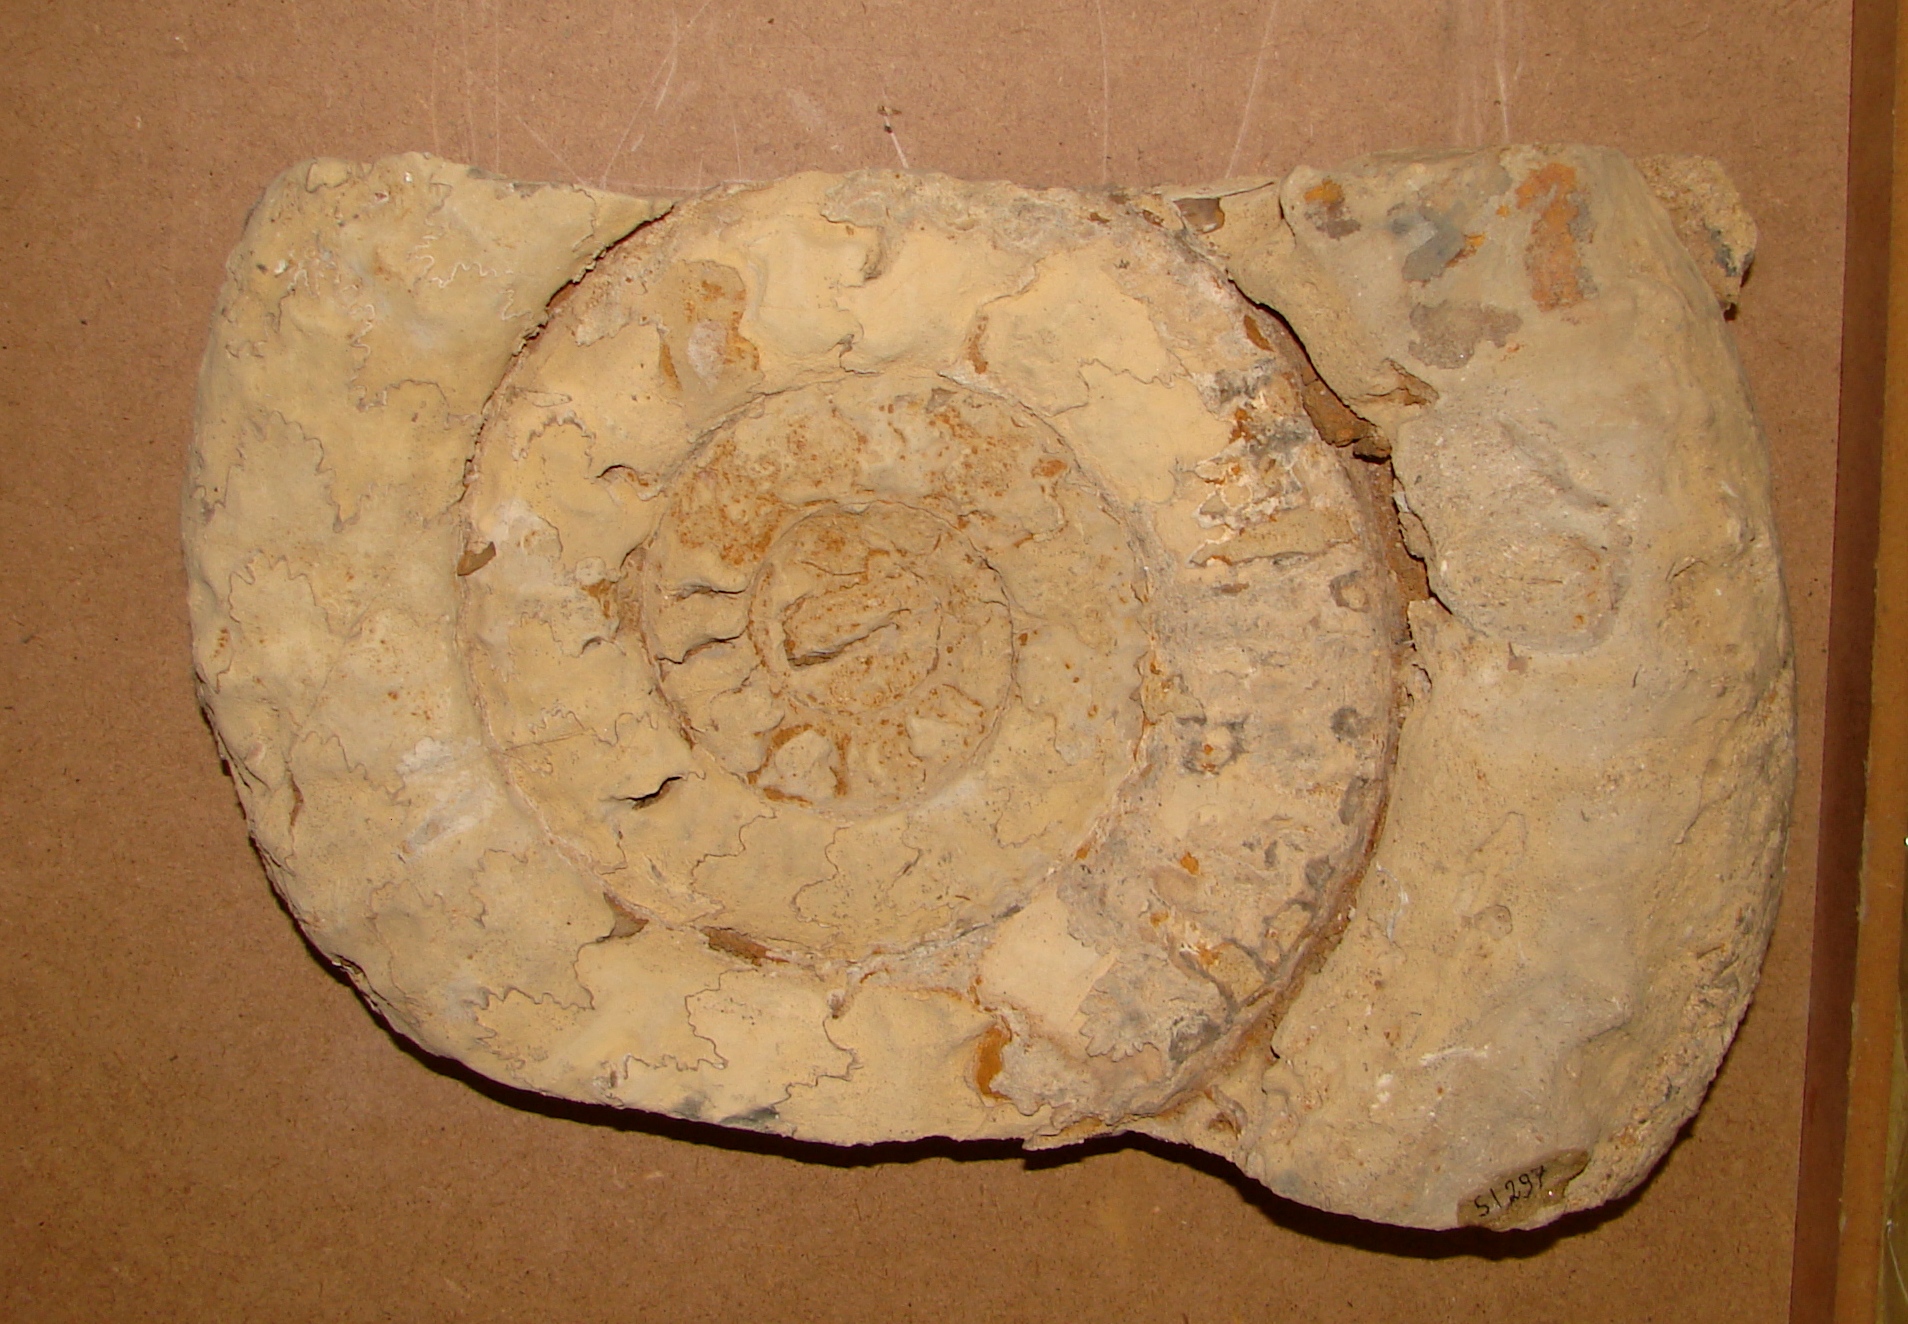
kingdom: Animalia
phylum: Mollusca
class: Cephalopoda
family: Arietitidae
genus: Arietites
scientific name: Arietites
